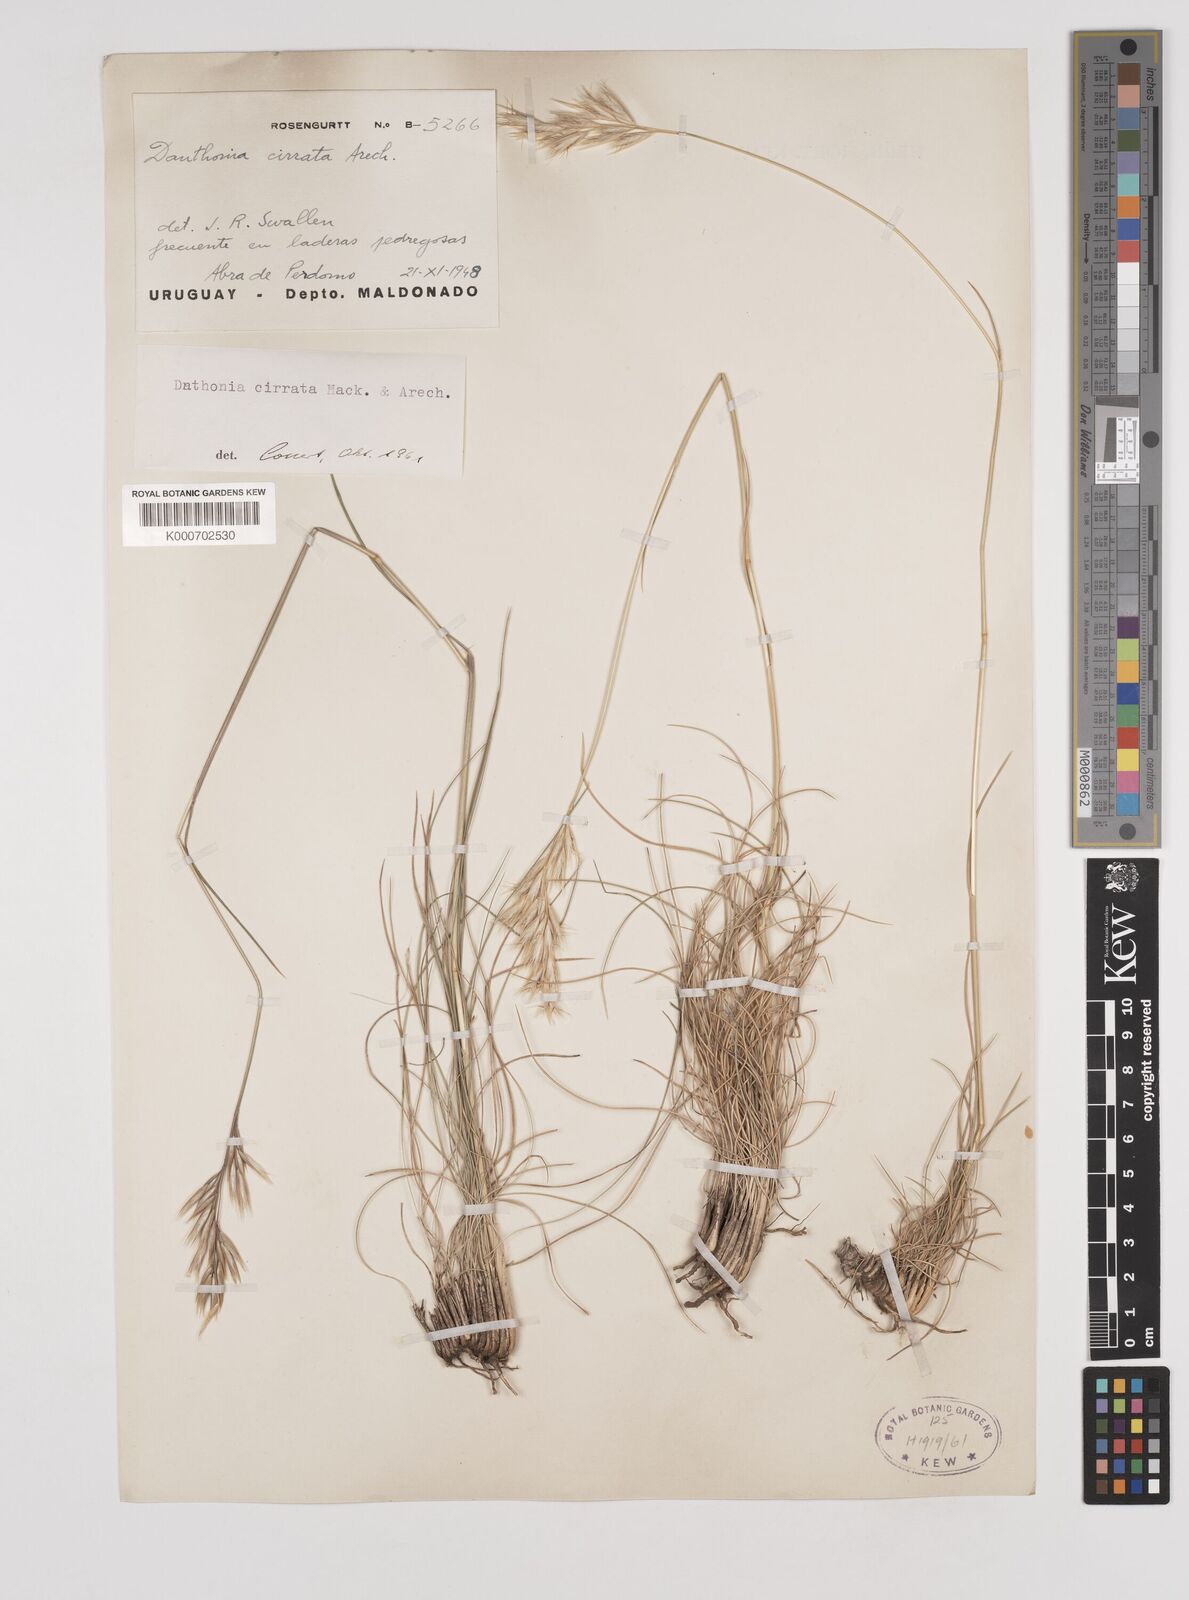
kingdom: Plantae
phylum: Tracheophyta
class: Liliopsida
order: Poales
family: Poaceae
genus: Danthonia
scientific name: Danthonia cirrata
